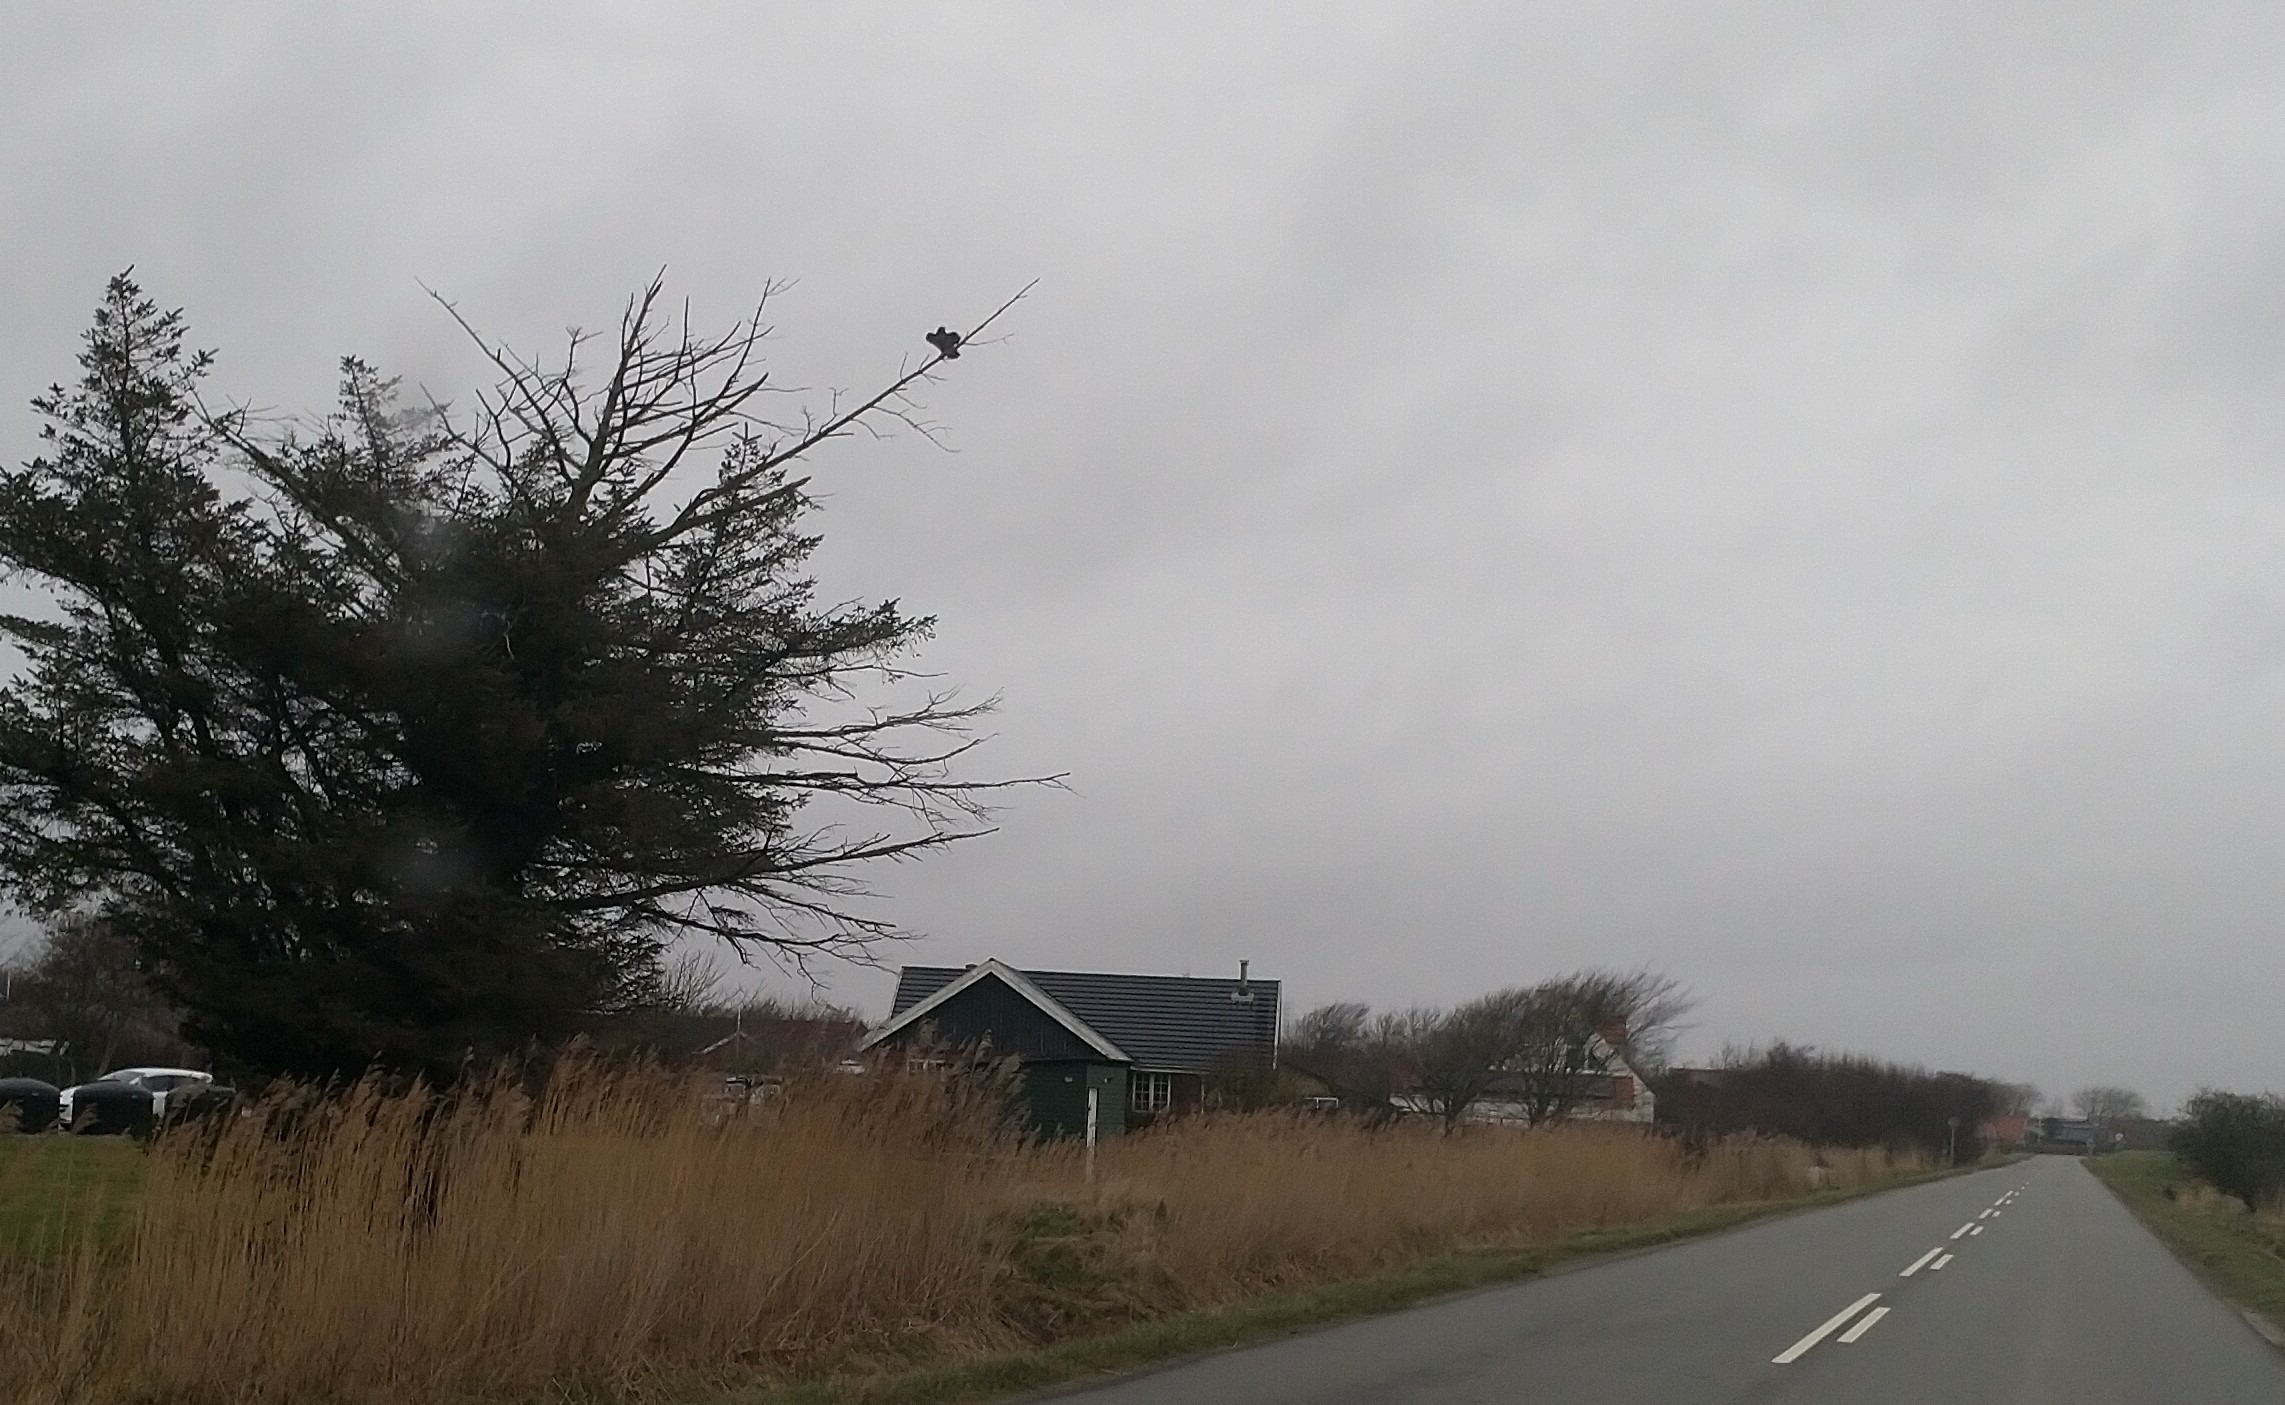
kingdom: Animalia
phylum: Chordata
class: Aves
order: Accipitriformes
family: Accipitridae
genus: Buteo
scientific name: Buteo buteo
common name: Musvåge
